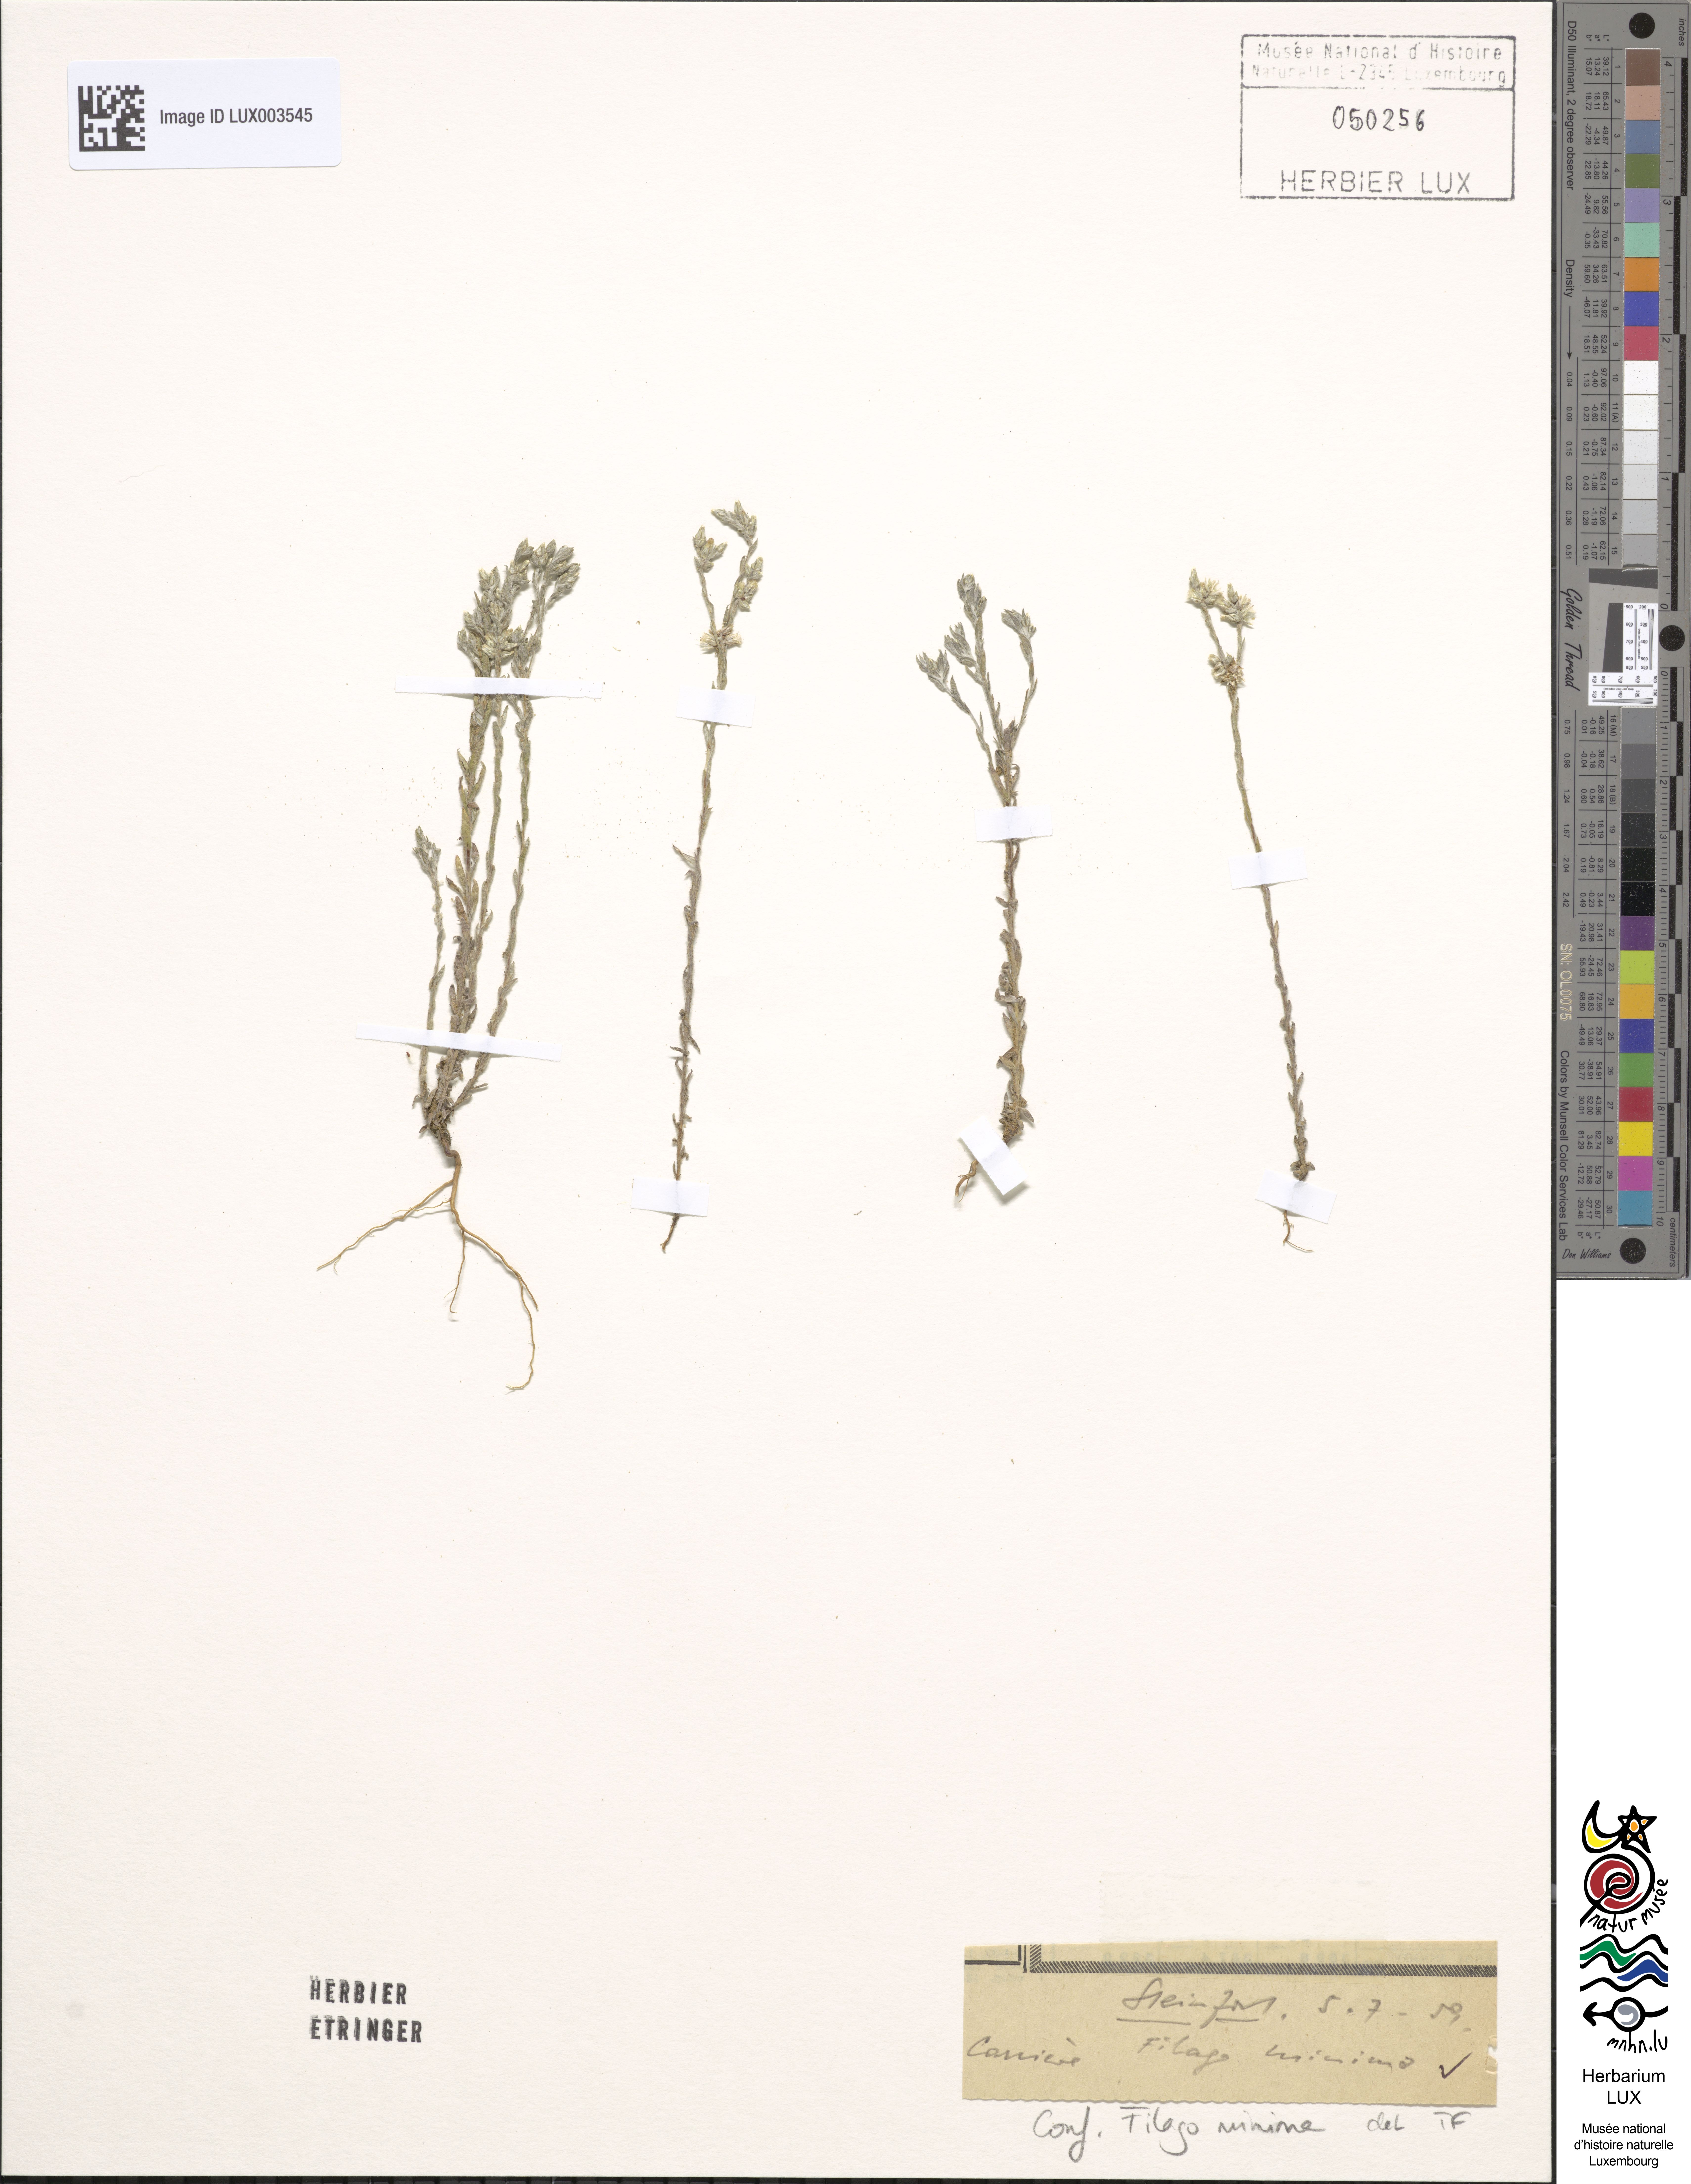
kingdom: Plantae
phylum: Tracheophyta
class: Magnoliopsida
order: Asterales
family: Asteraceae
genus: Logfia
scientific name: Logfia minima
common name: Little cottonrose
